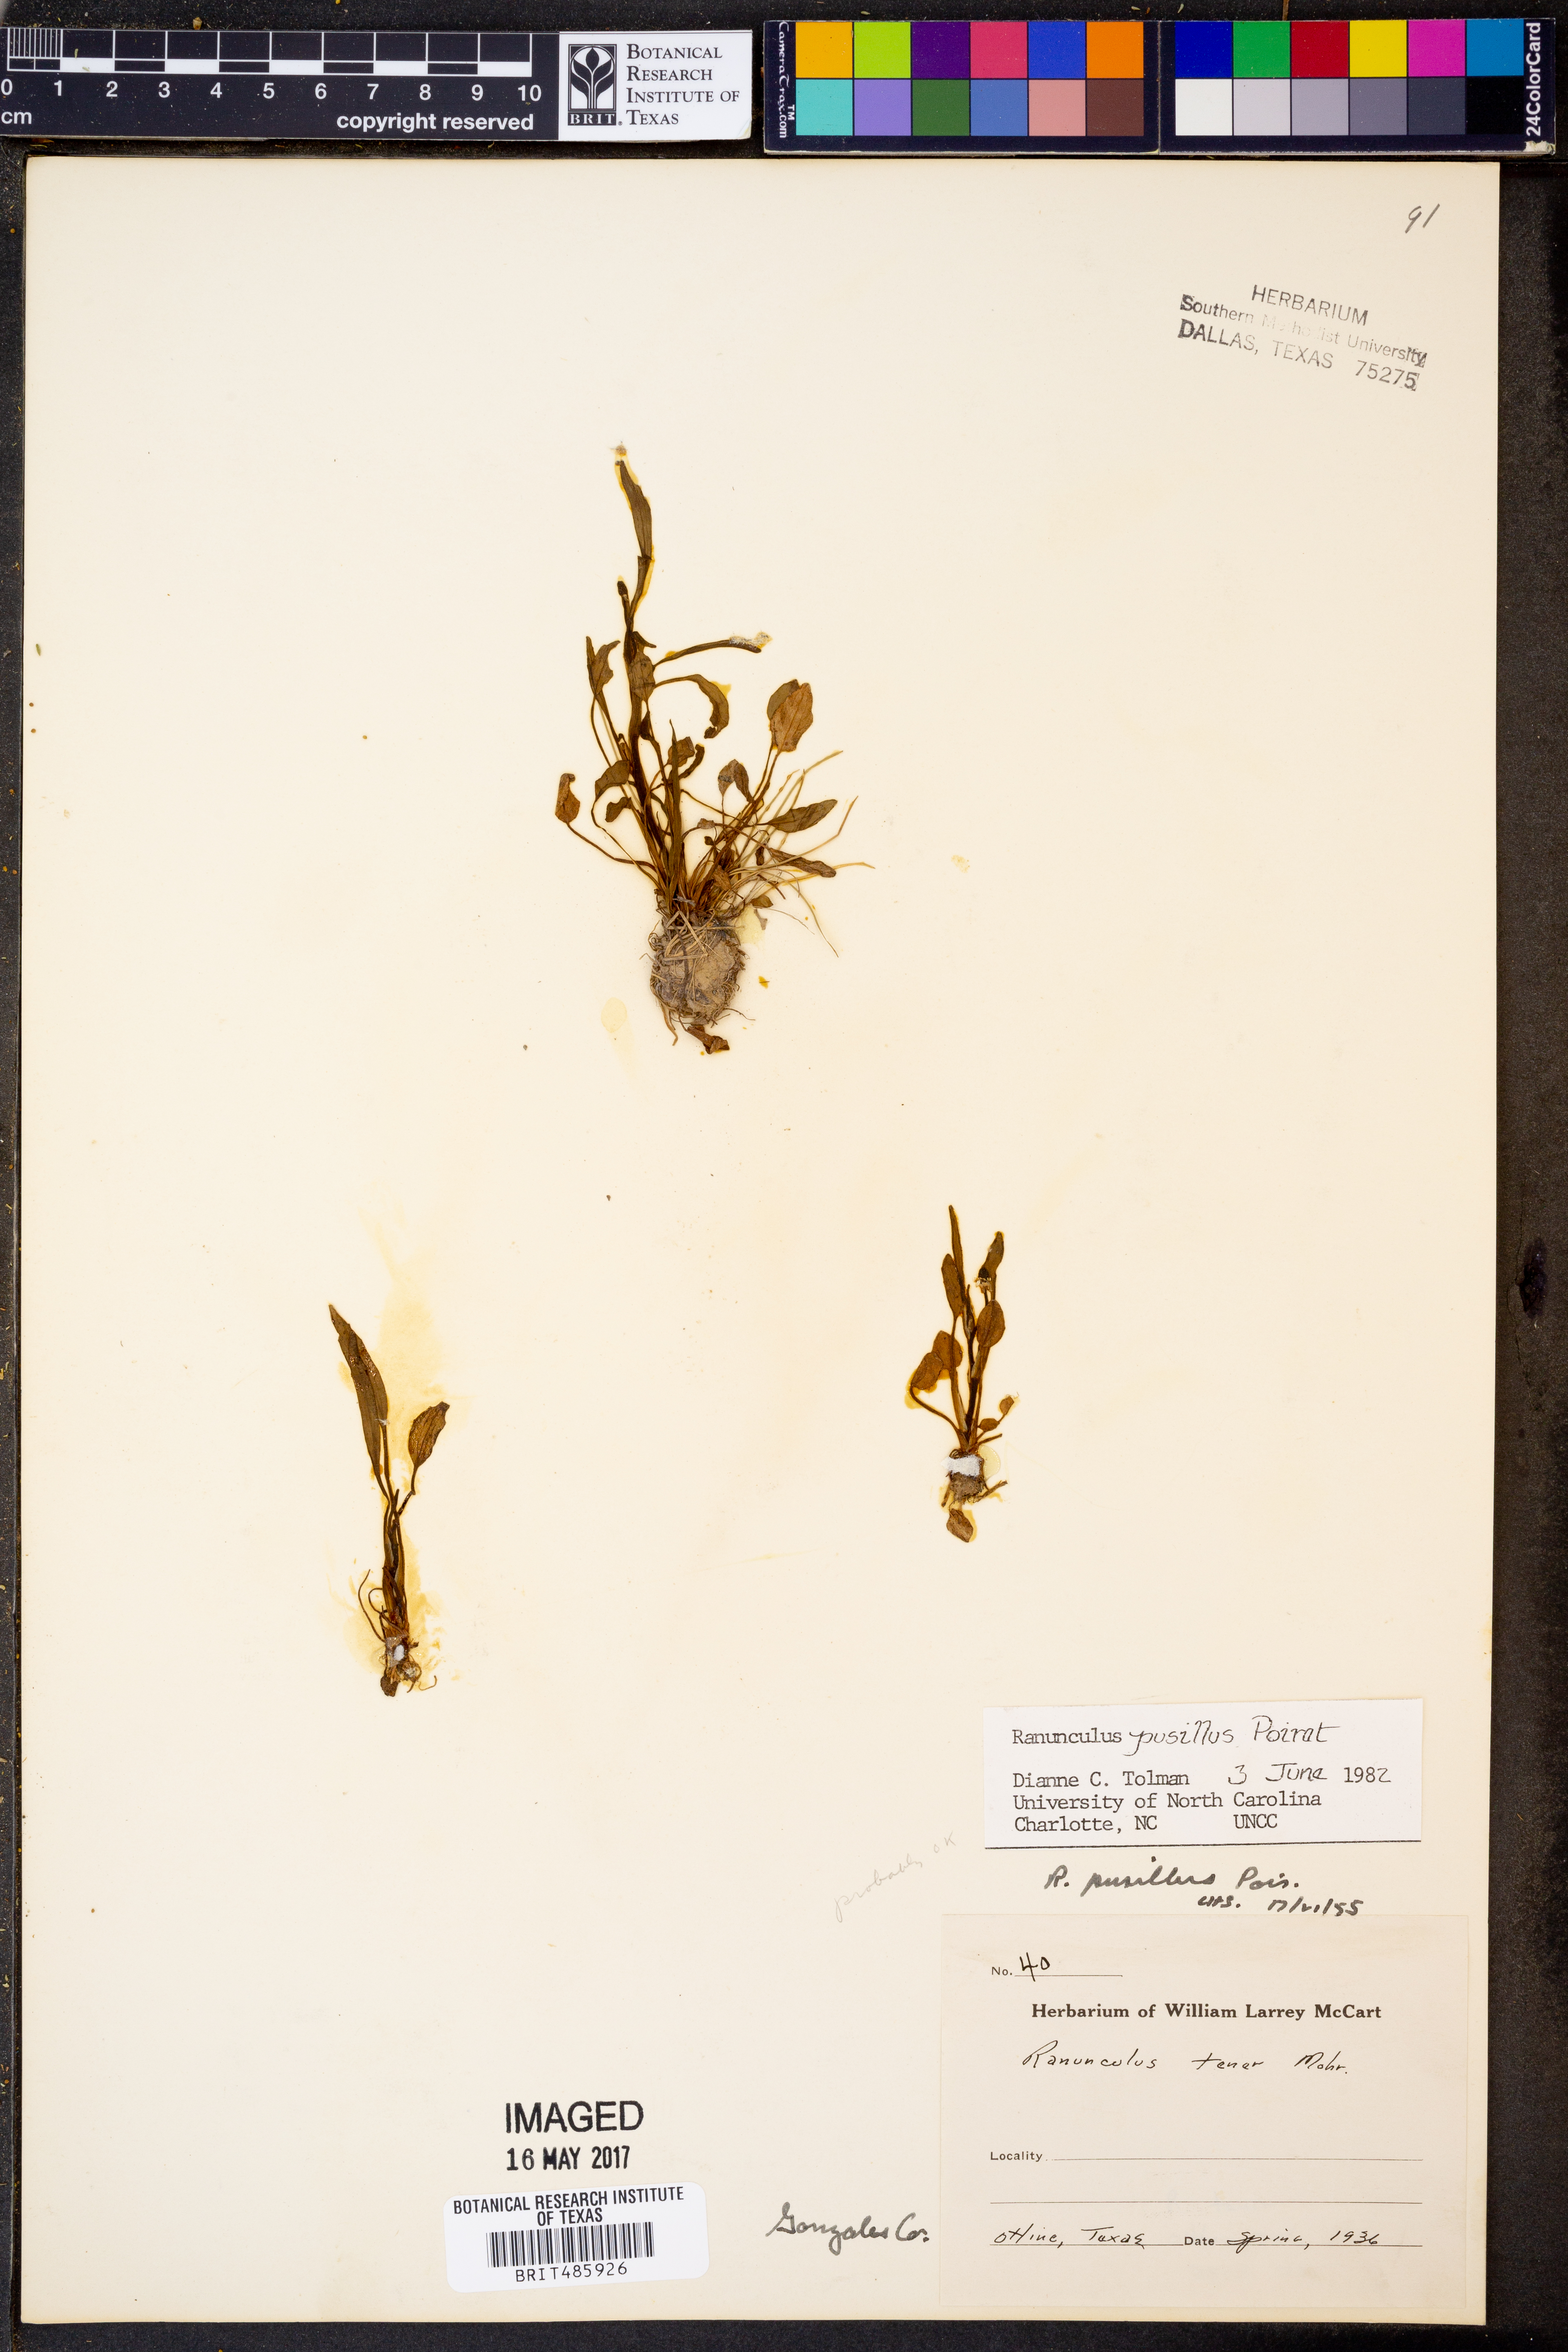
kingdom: Plantae
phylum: Tracheophyta
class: Magnoliopsida
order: Ranunculales
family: Ranunculaceae
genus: Ranunculus
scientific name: Ranunculus pusillus
